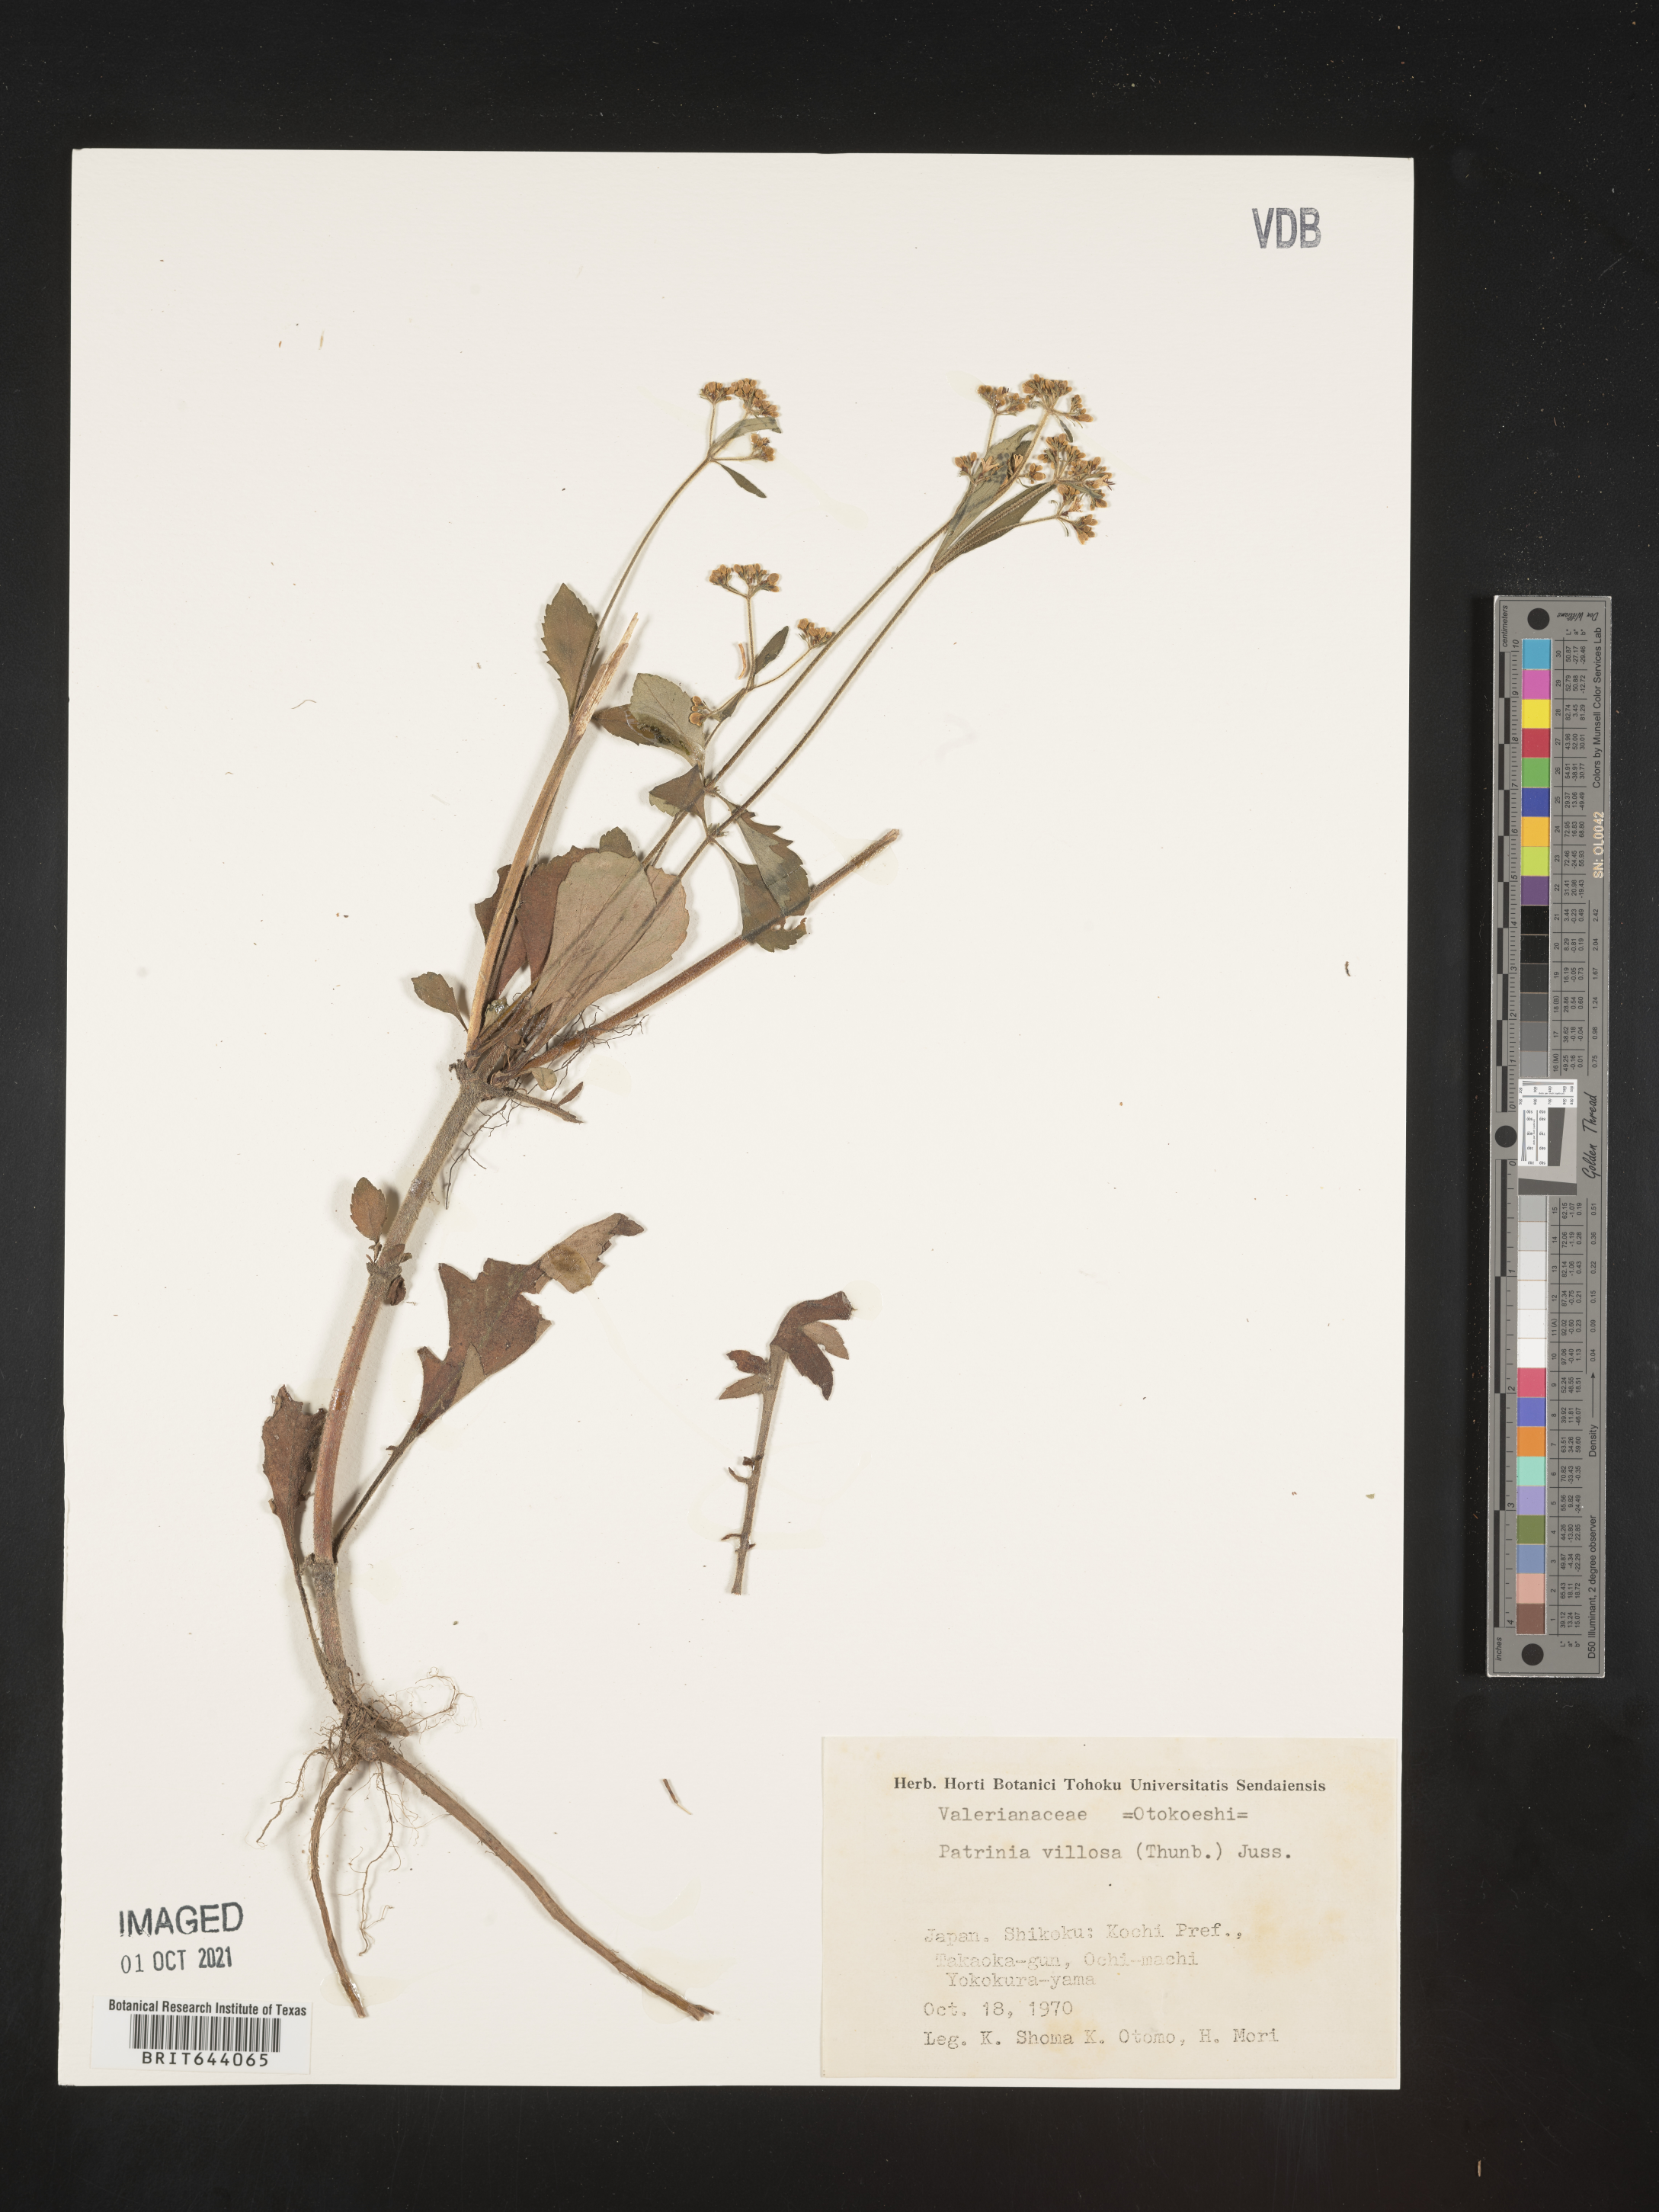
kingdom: Plantae
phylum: Tracheophyta
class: Magnoliopsida
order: Dipsacales
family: Caprifoliaceae
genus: Patrinia
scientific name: Patrinia
